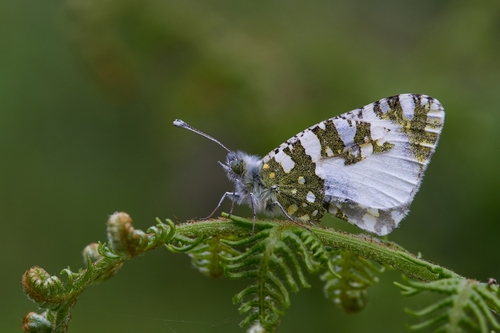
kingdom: Animalia
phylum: Arthropoda
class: Insecta
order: Lepidoptera
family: Pieridae
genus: Euchloe
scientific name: Euchloe crameri
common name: Western dappled white
